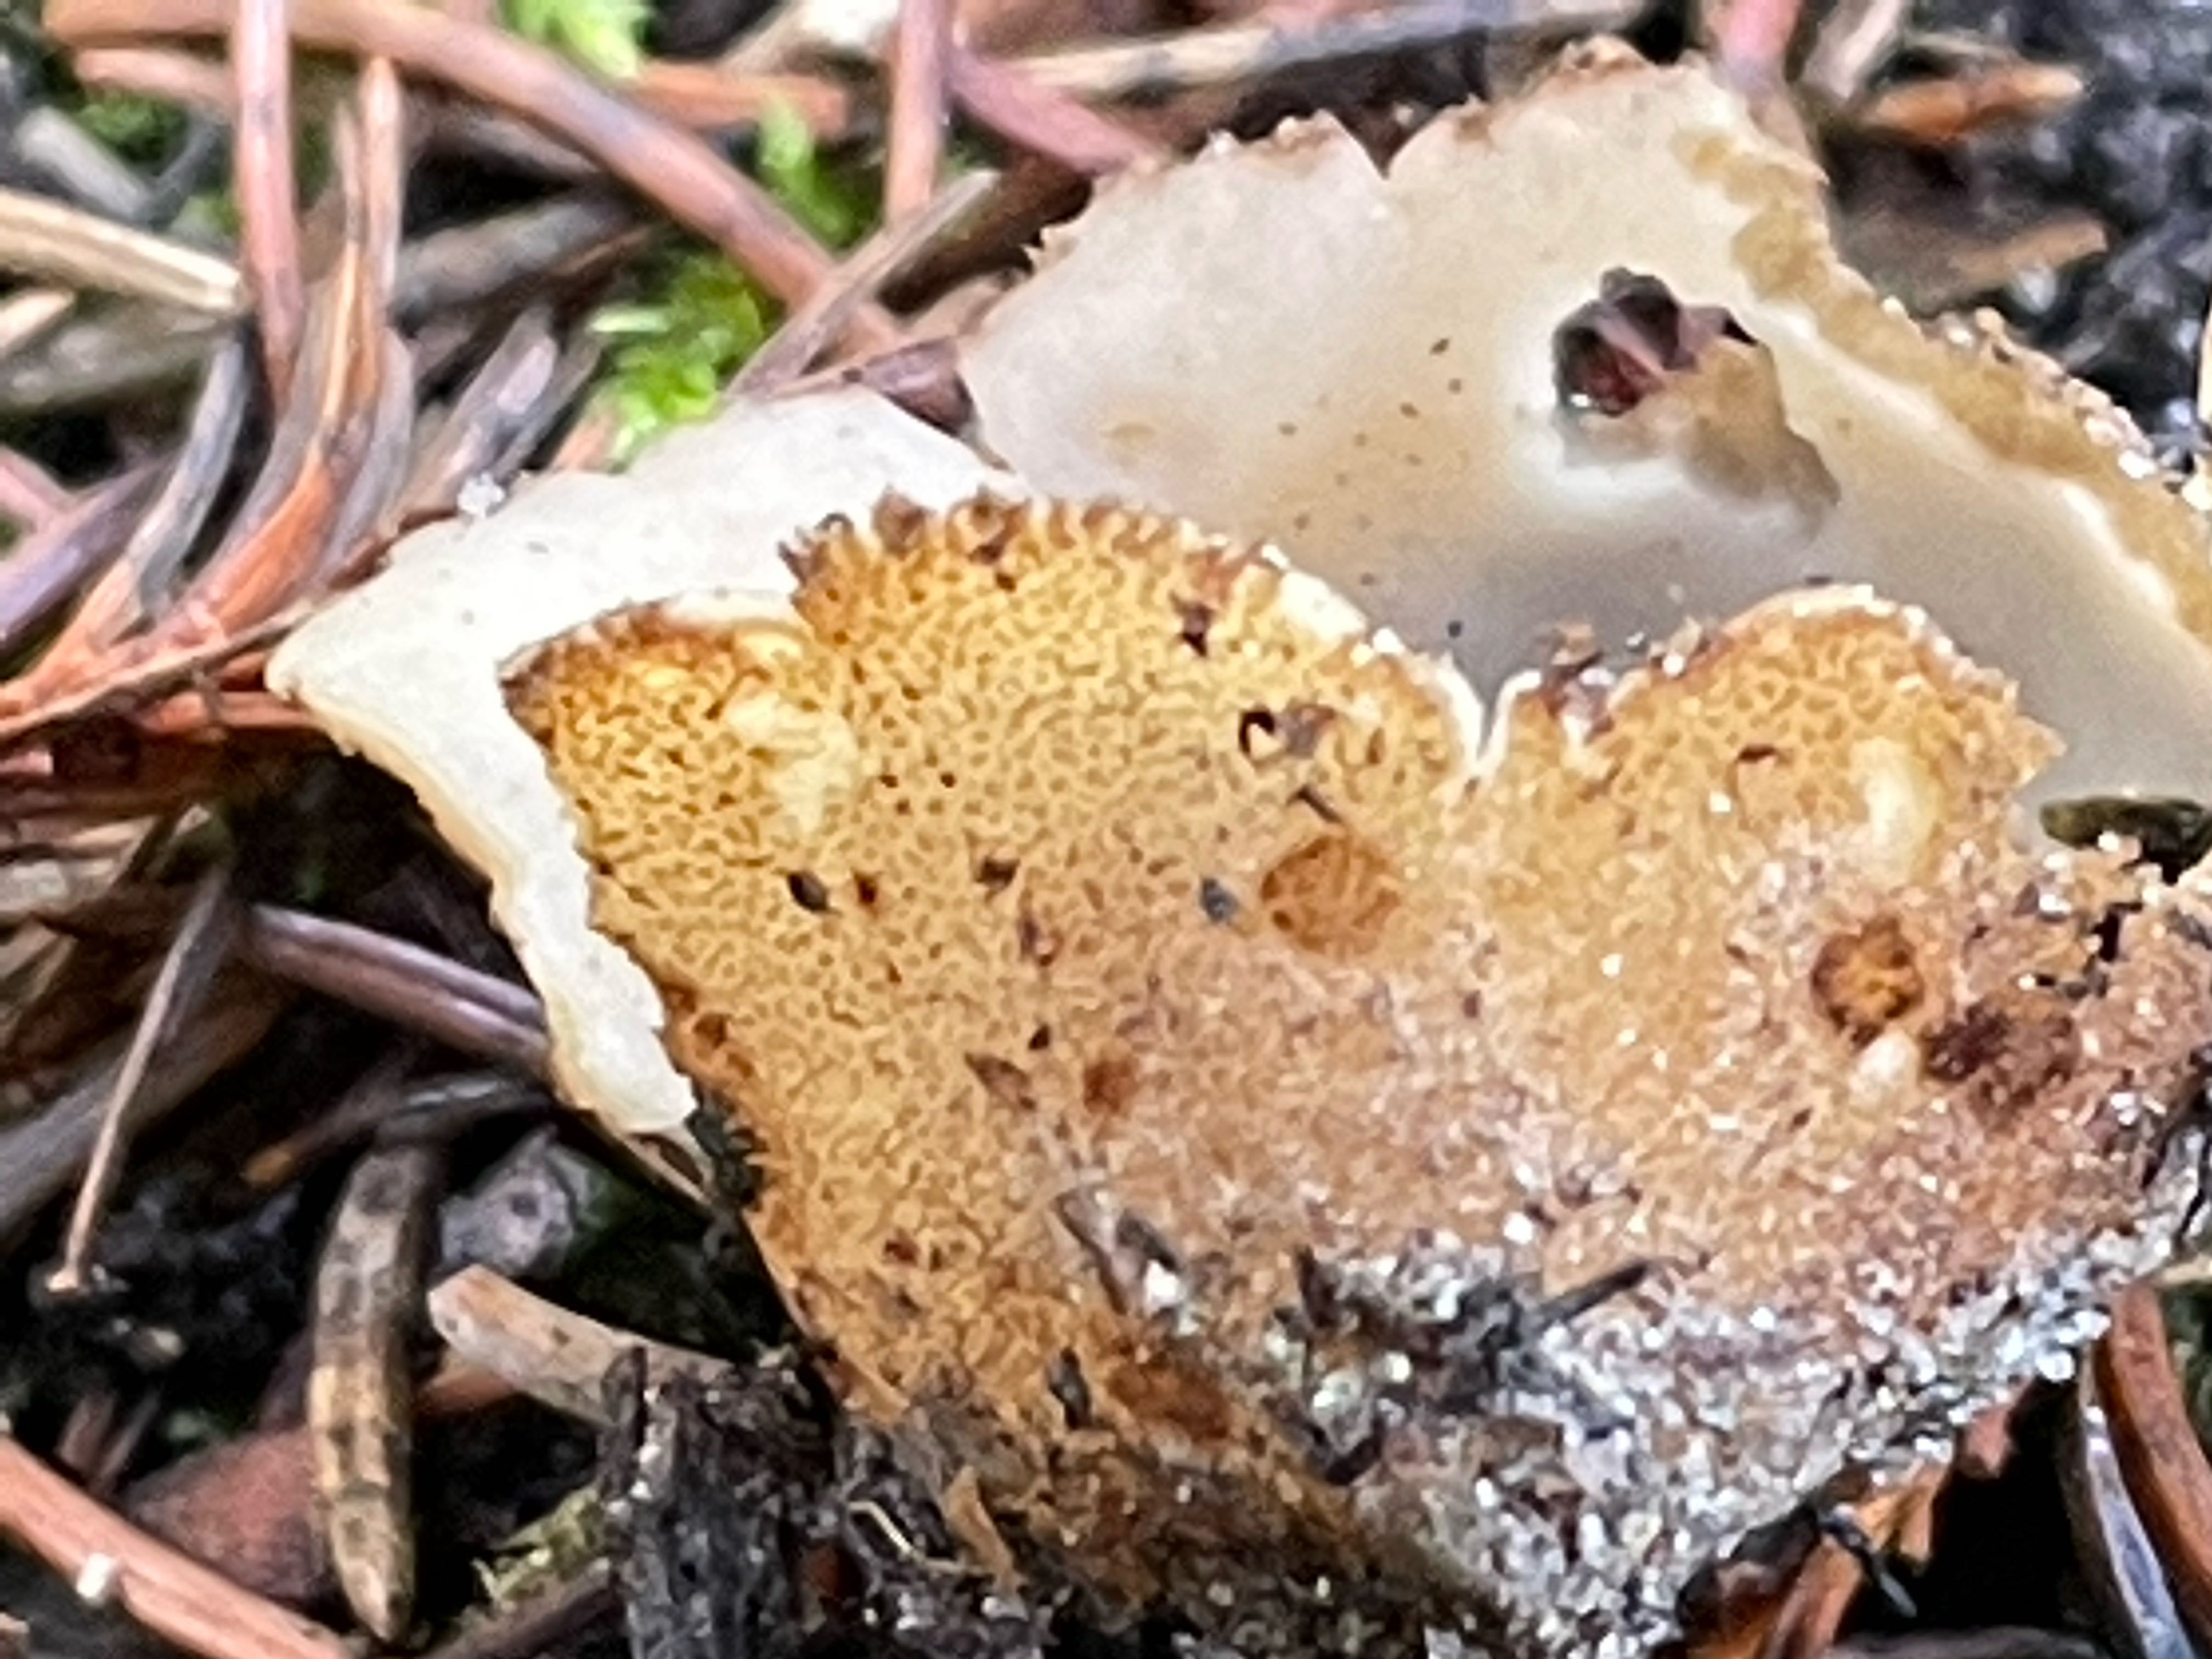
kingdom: Fungi
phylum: Ascomycota
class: Pezizomycetes
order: Pezizales
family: Pyronemataceae
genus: Geopora
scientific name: Geopora
